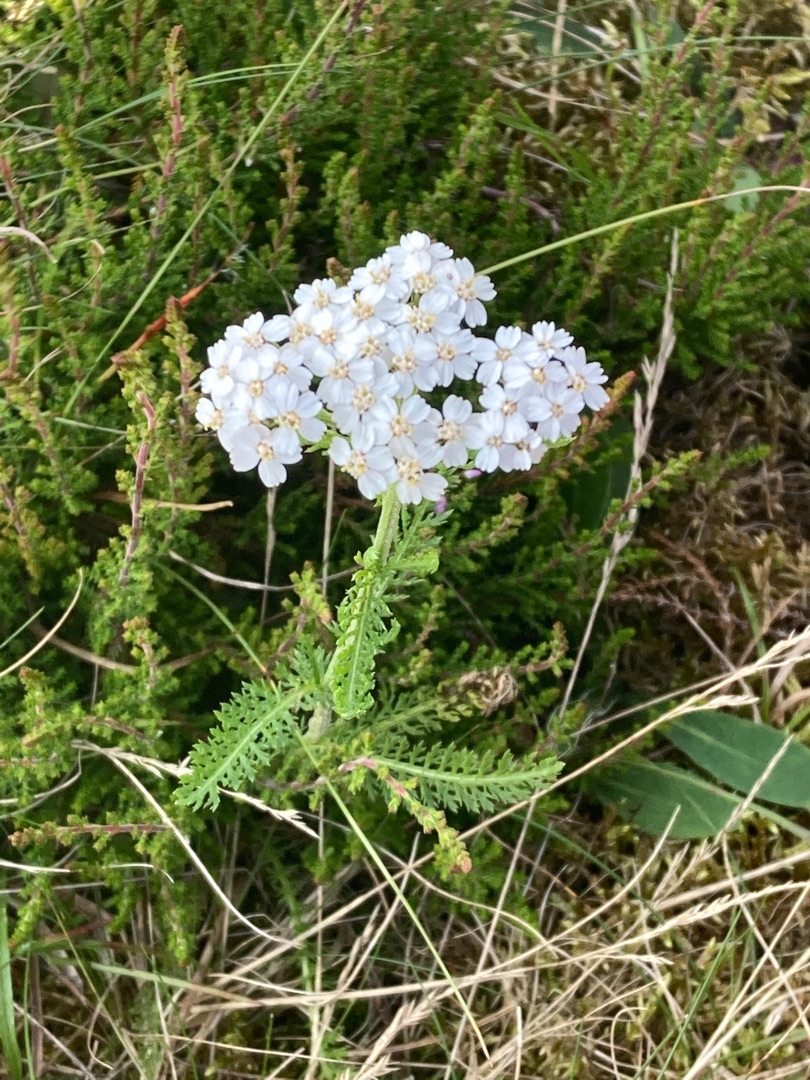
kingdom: Plantae
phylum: Tracheophyta
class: Magnoliopsida
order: Asterales
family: Asteraceae
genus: Achillea
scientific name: Achillea millefolium
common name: Almindelig røllike
